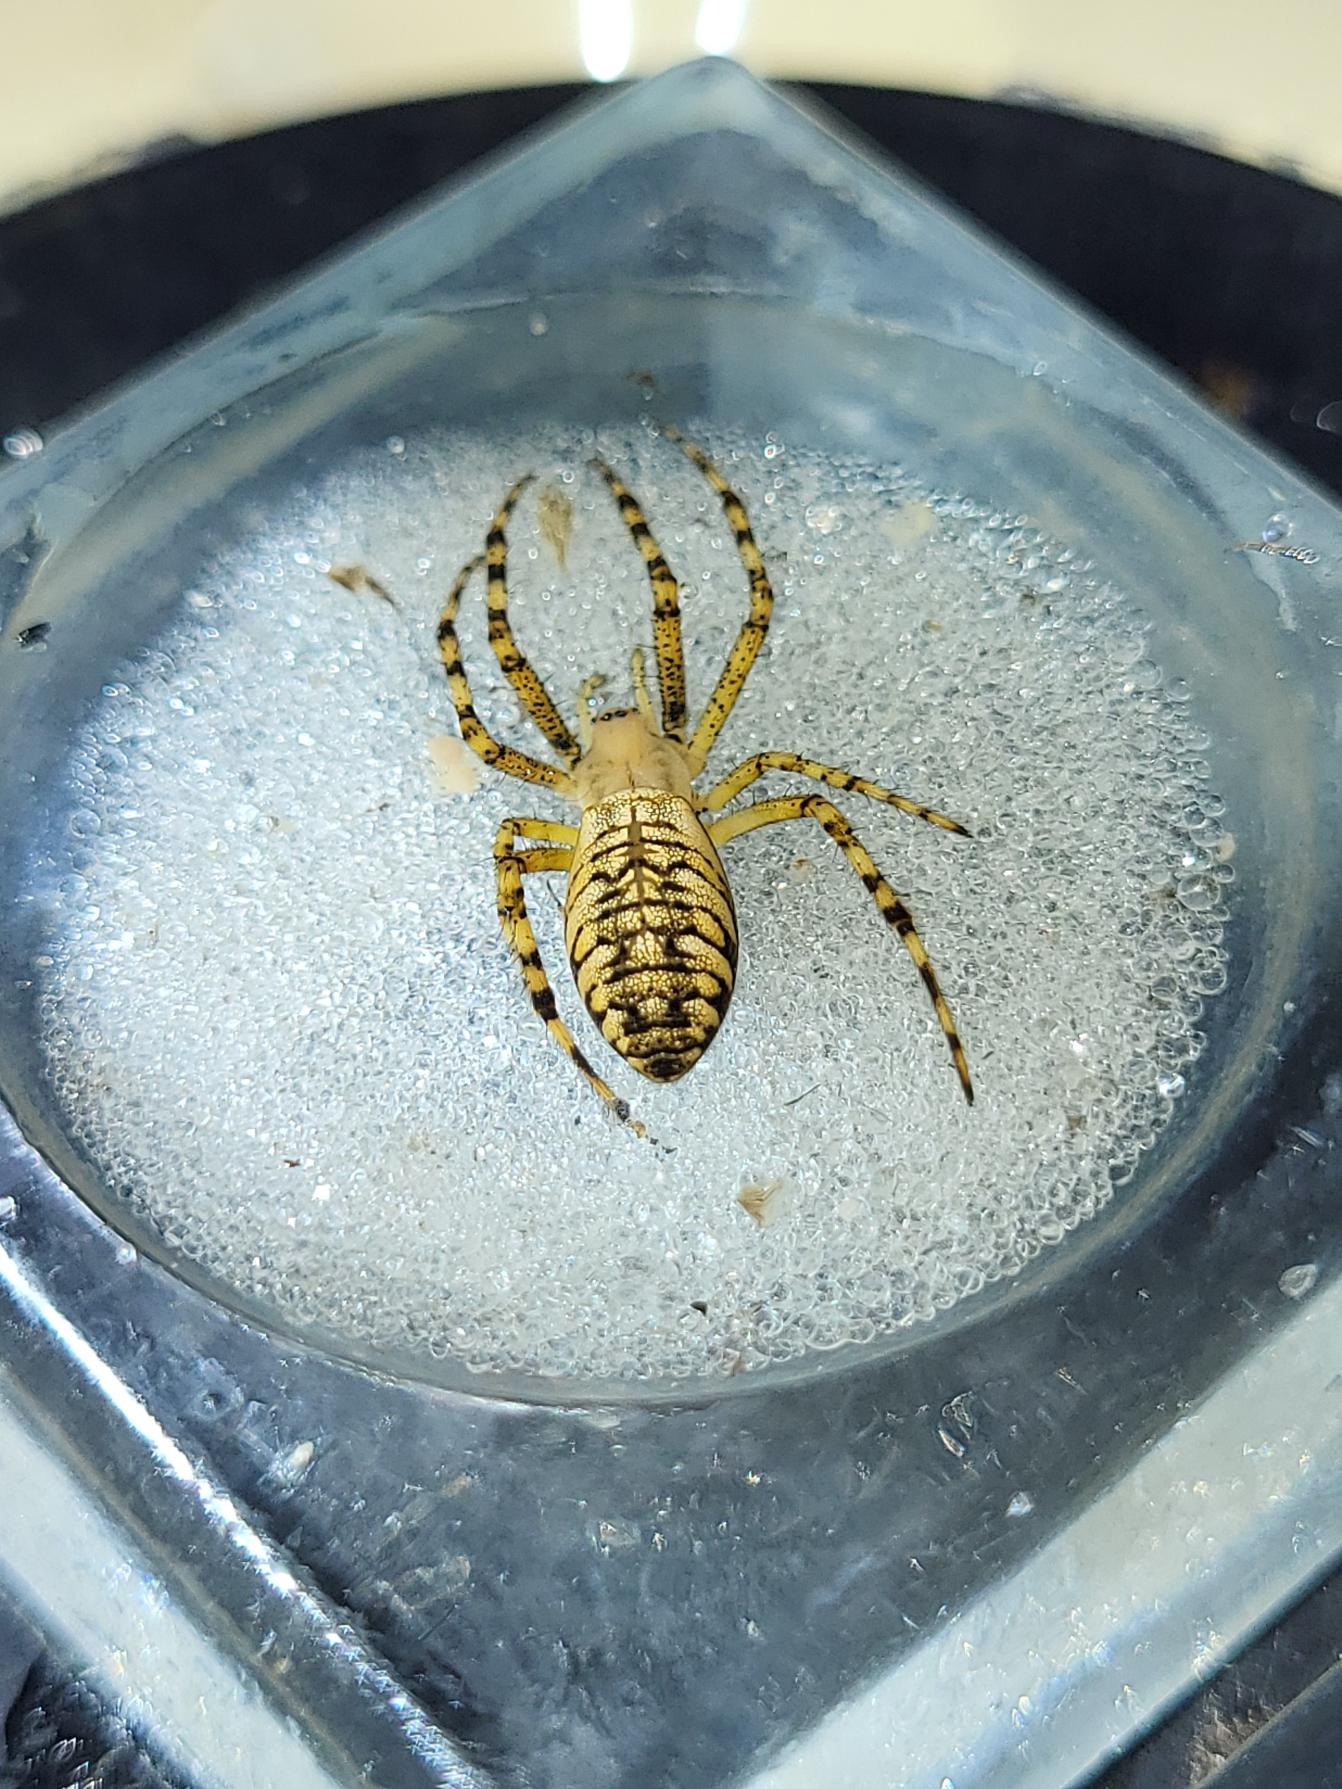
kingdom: Animalia
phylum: Arthropoda
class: Arachnida
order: Araneae
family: Araneidae
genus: Argiope
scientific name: Argiope bruennichi
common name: Hvepseedderkop
